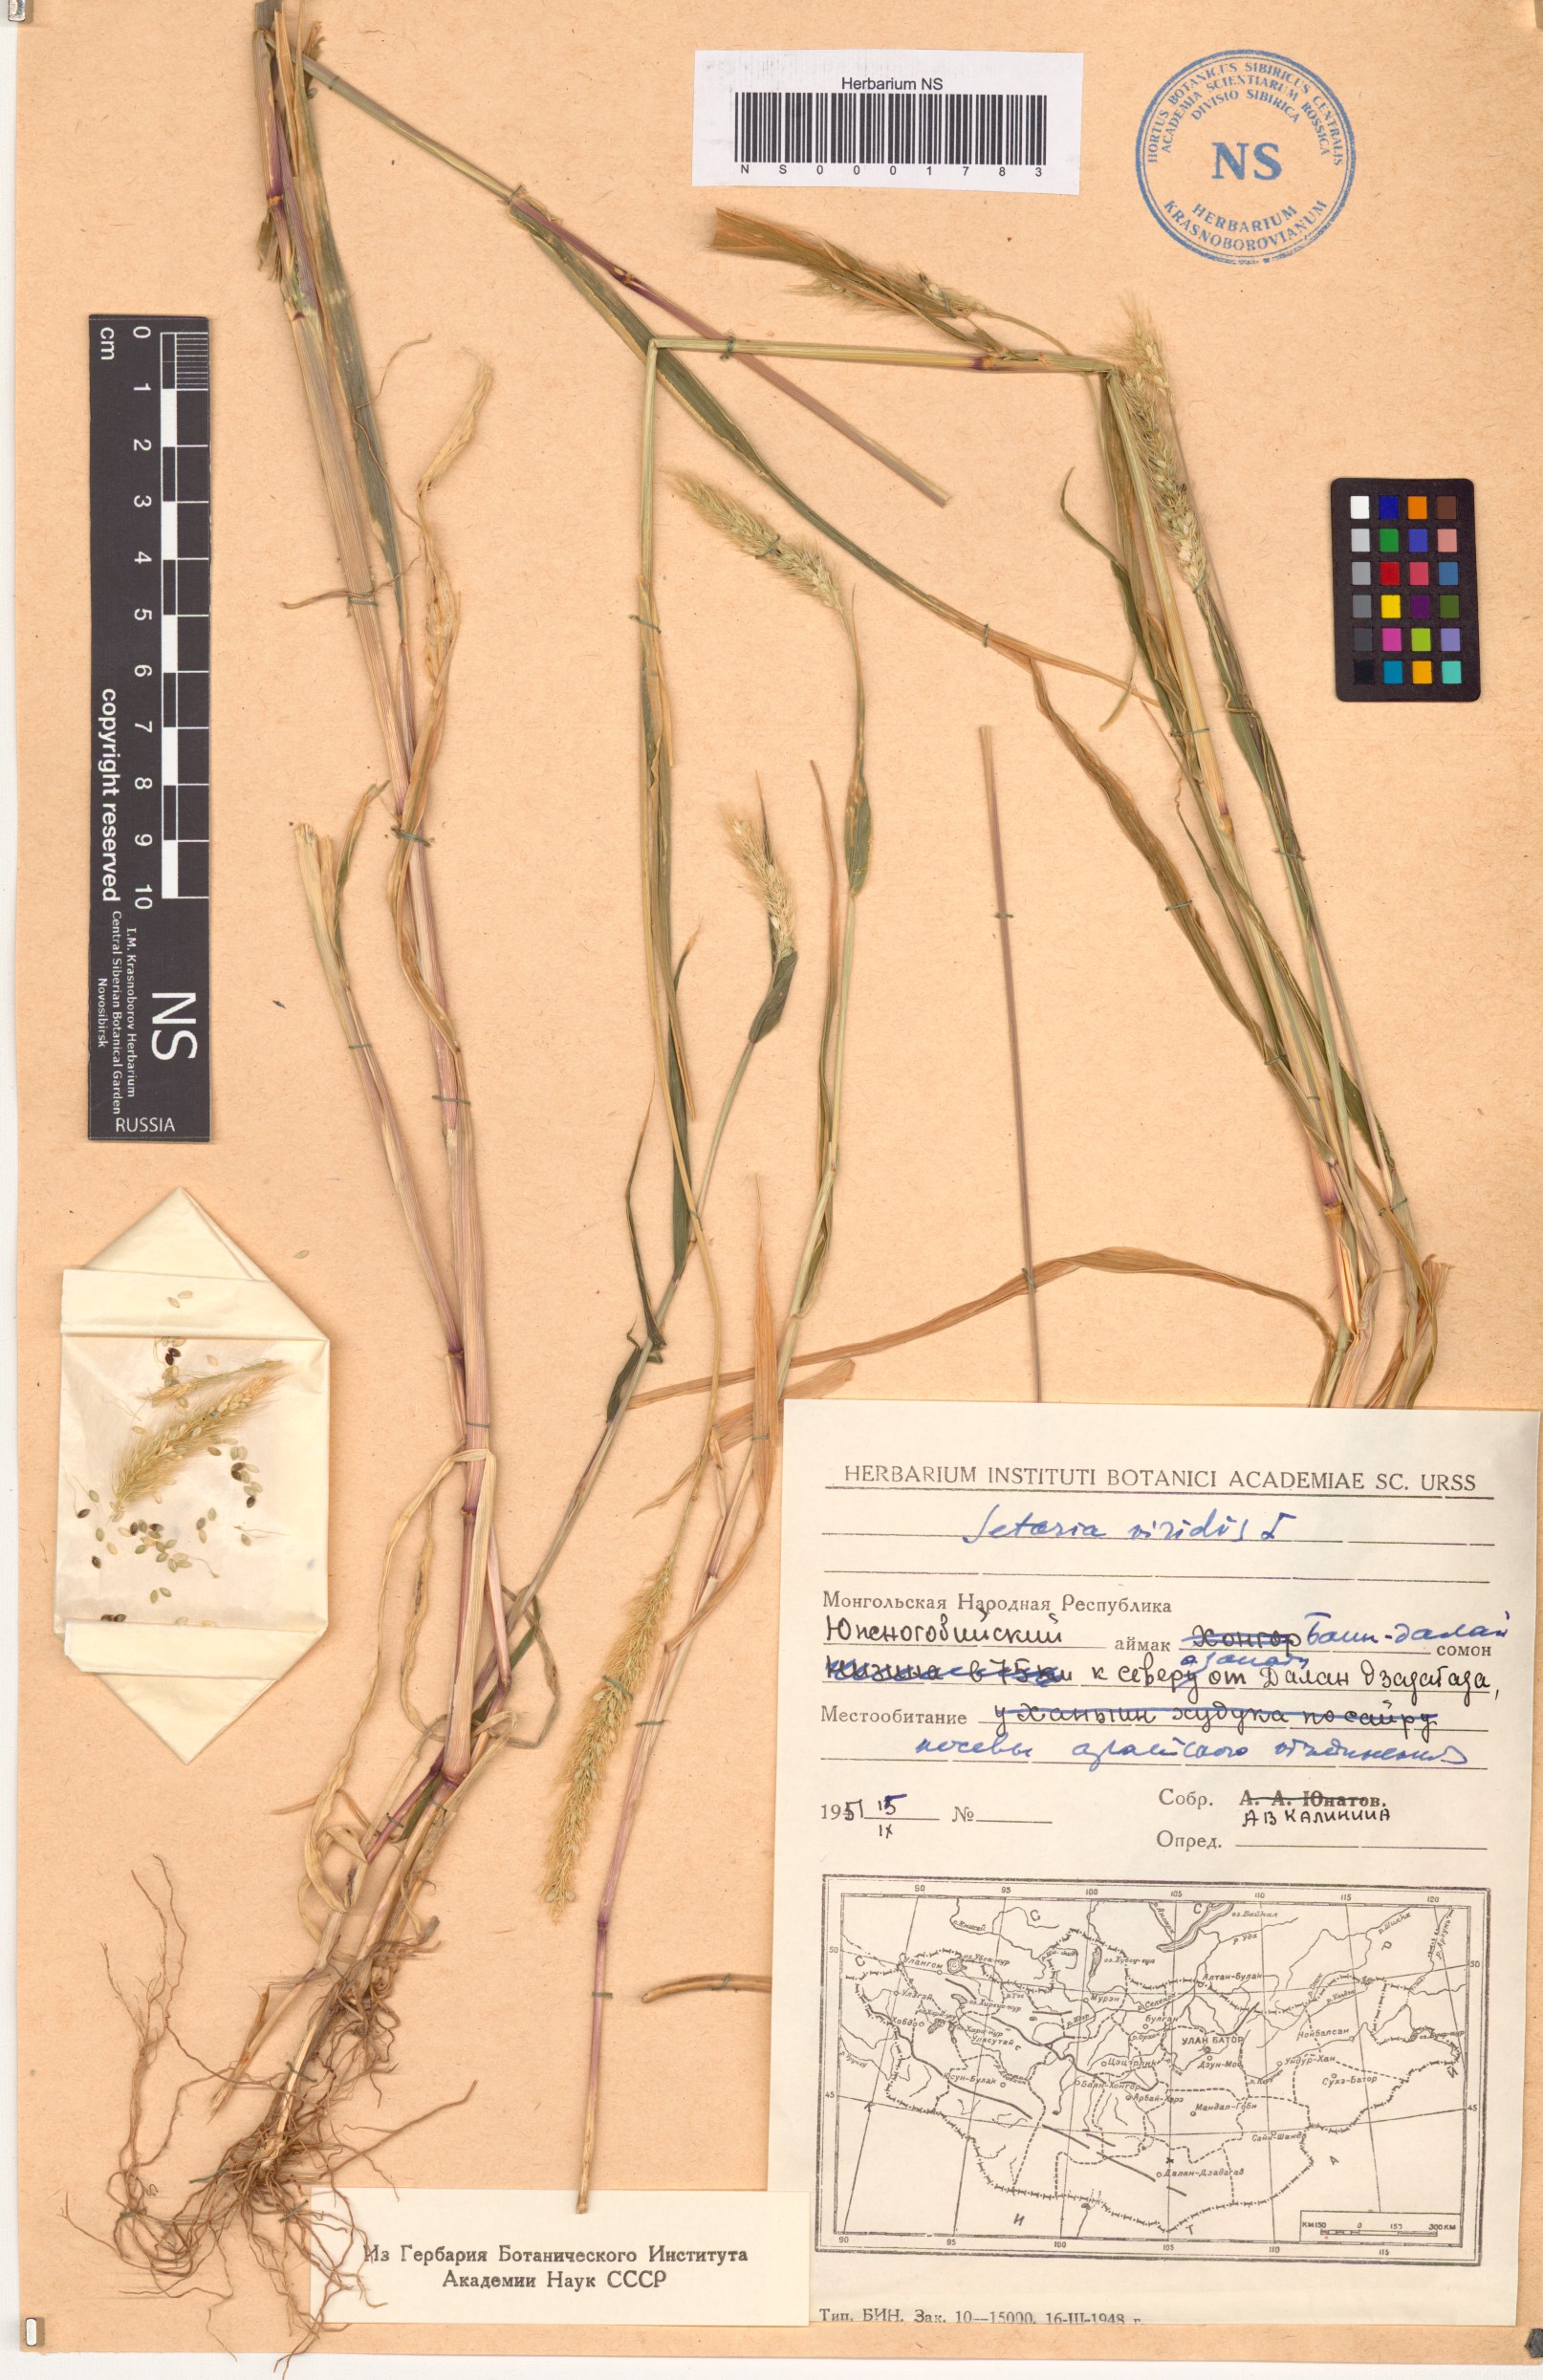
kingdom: Plantae
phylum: Tracheophyta
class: Liliopsida
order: Poales
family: Poaceae
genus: Setaria
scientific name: Setaria viridis
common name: Green bristlegrass
